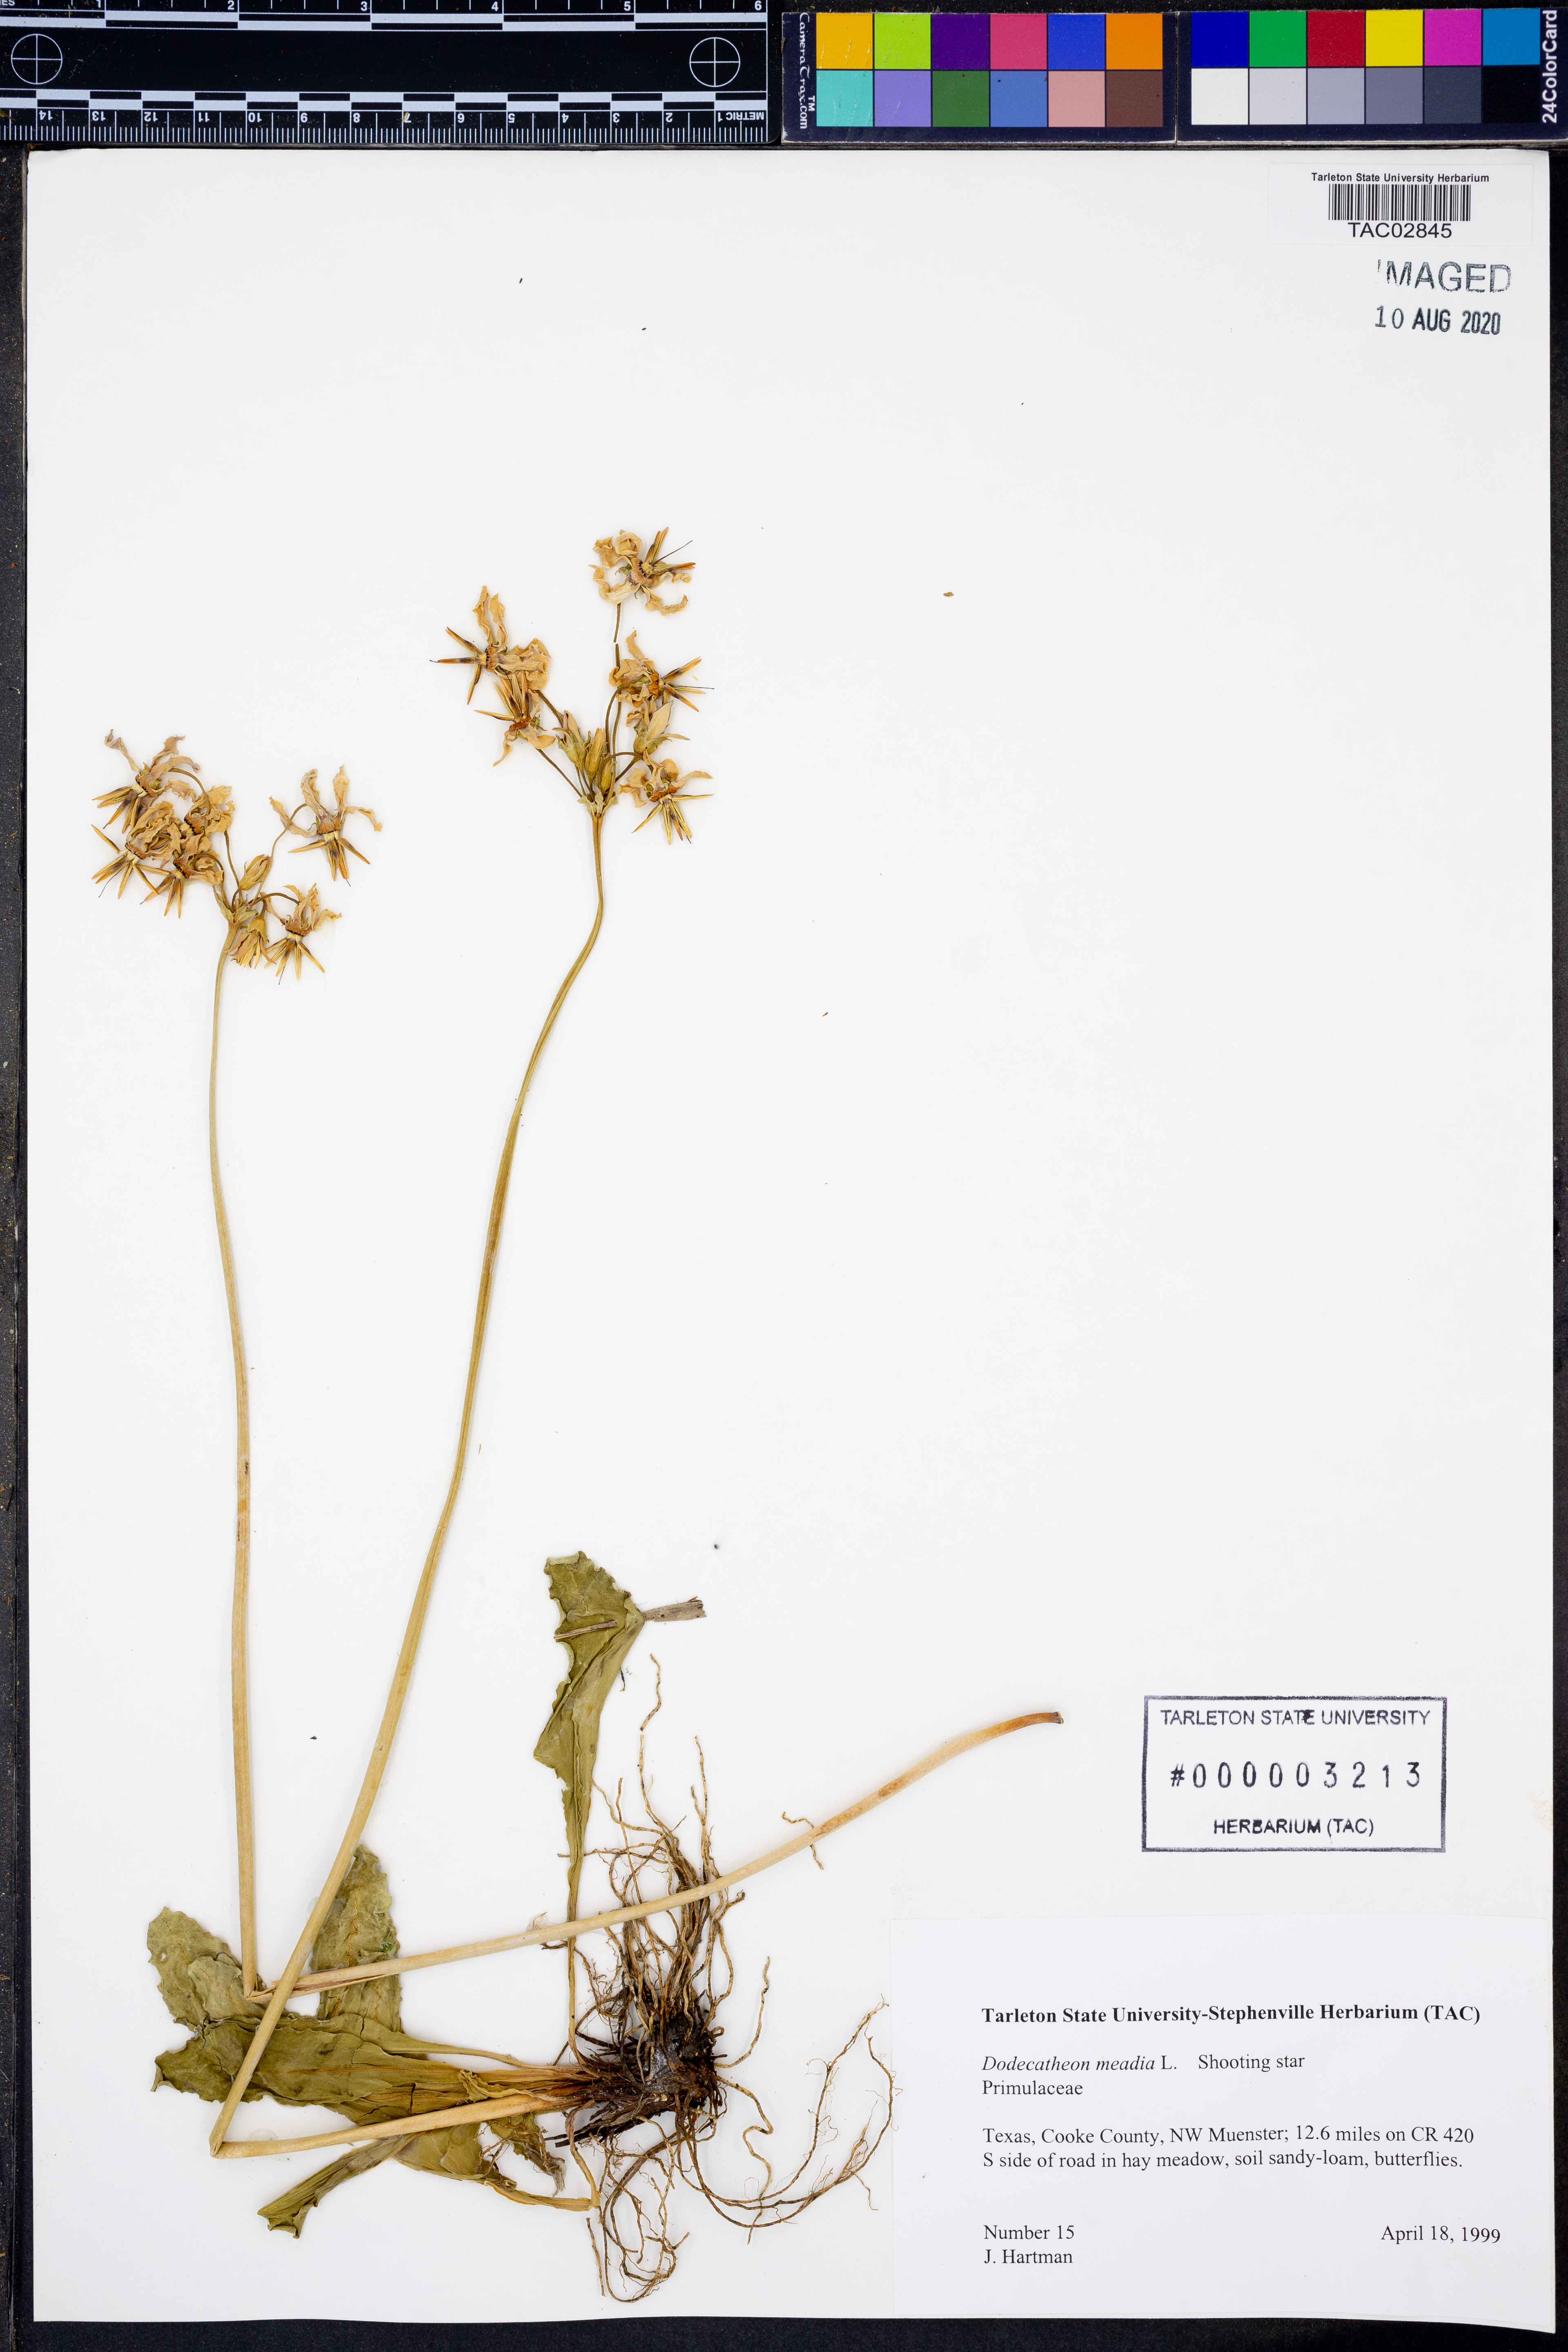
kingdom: Plantae
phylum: Tracheophyta
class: Magnoliopsida
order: Ericales
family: Primulaceae
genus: Dodecatheon
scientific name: Dodecatheon meadia
